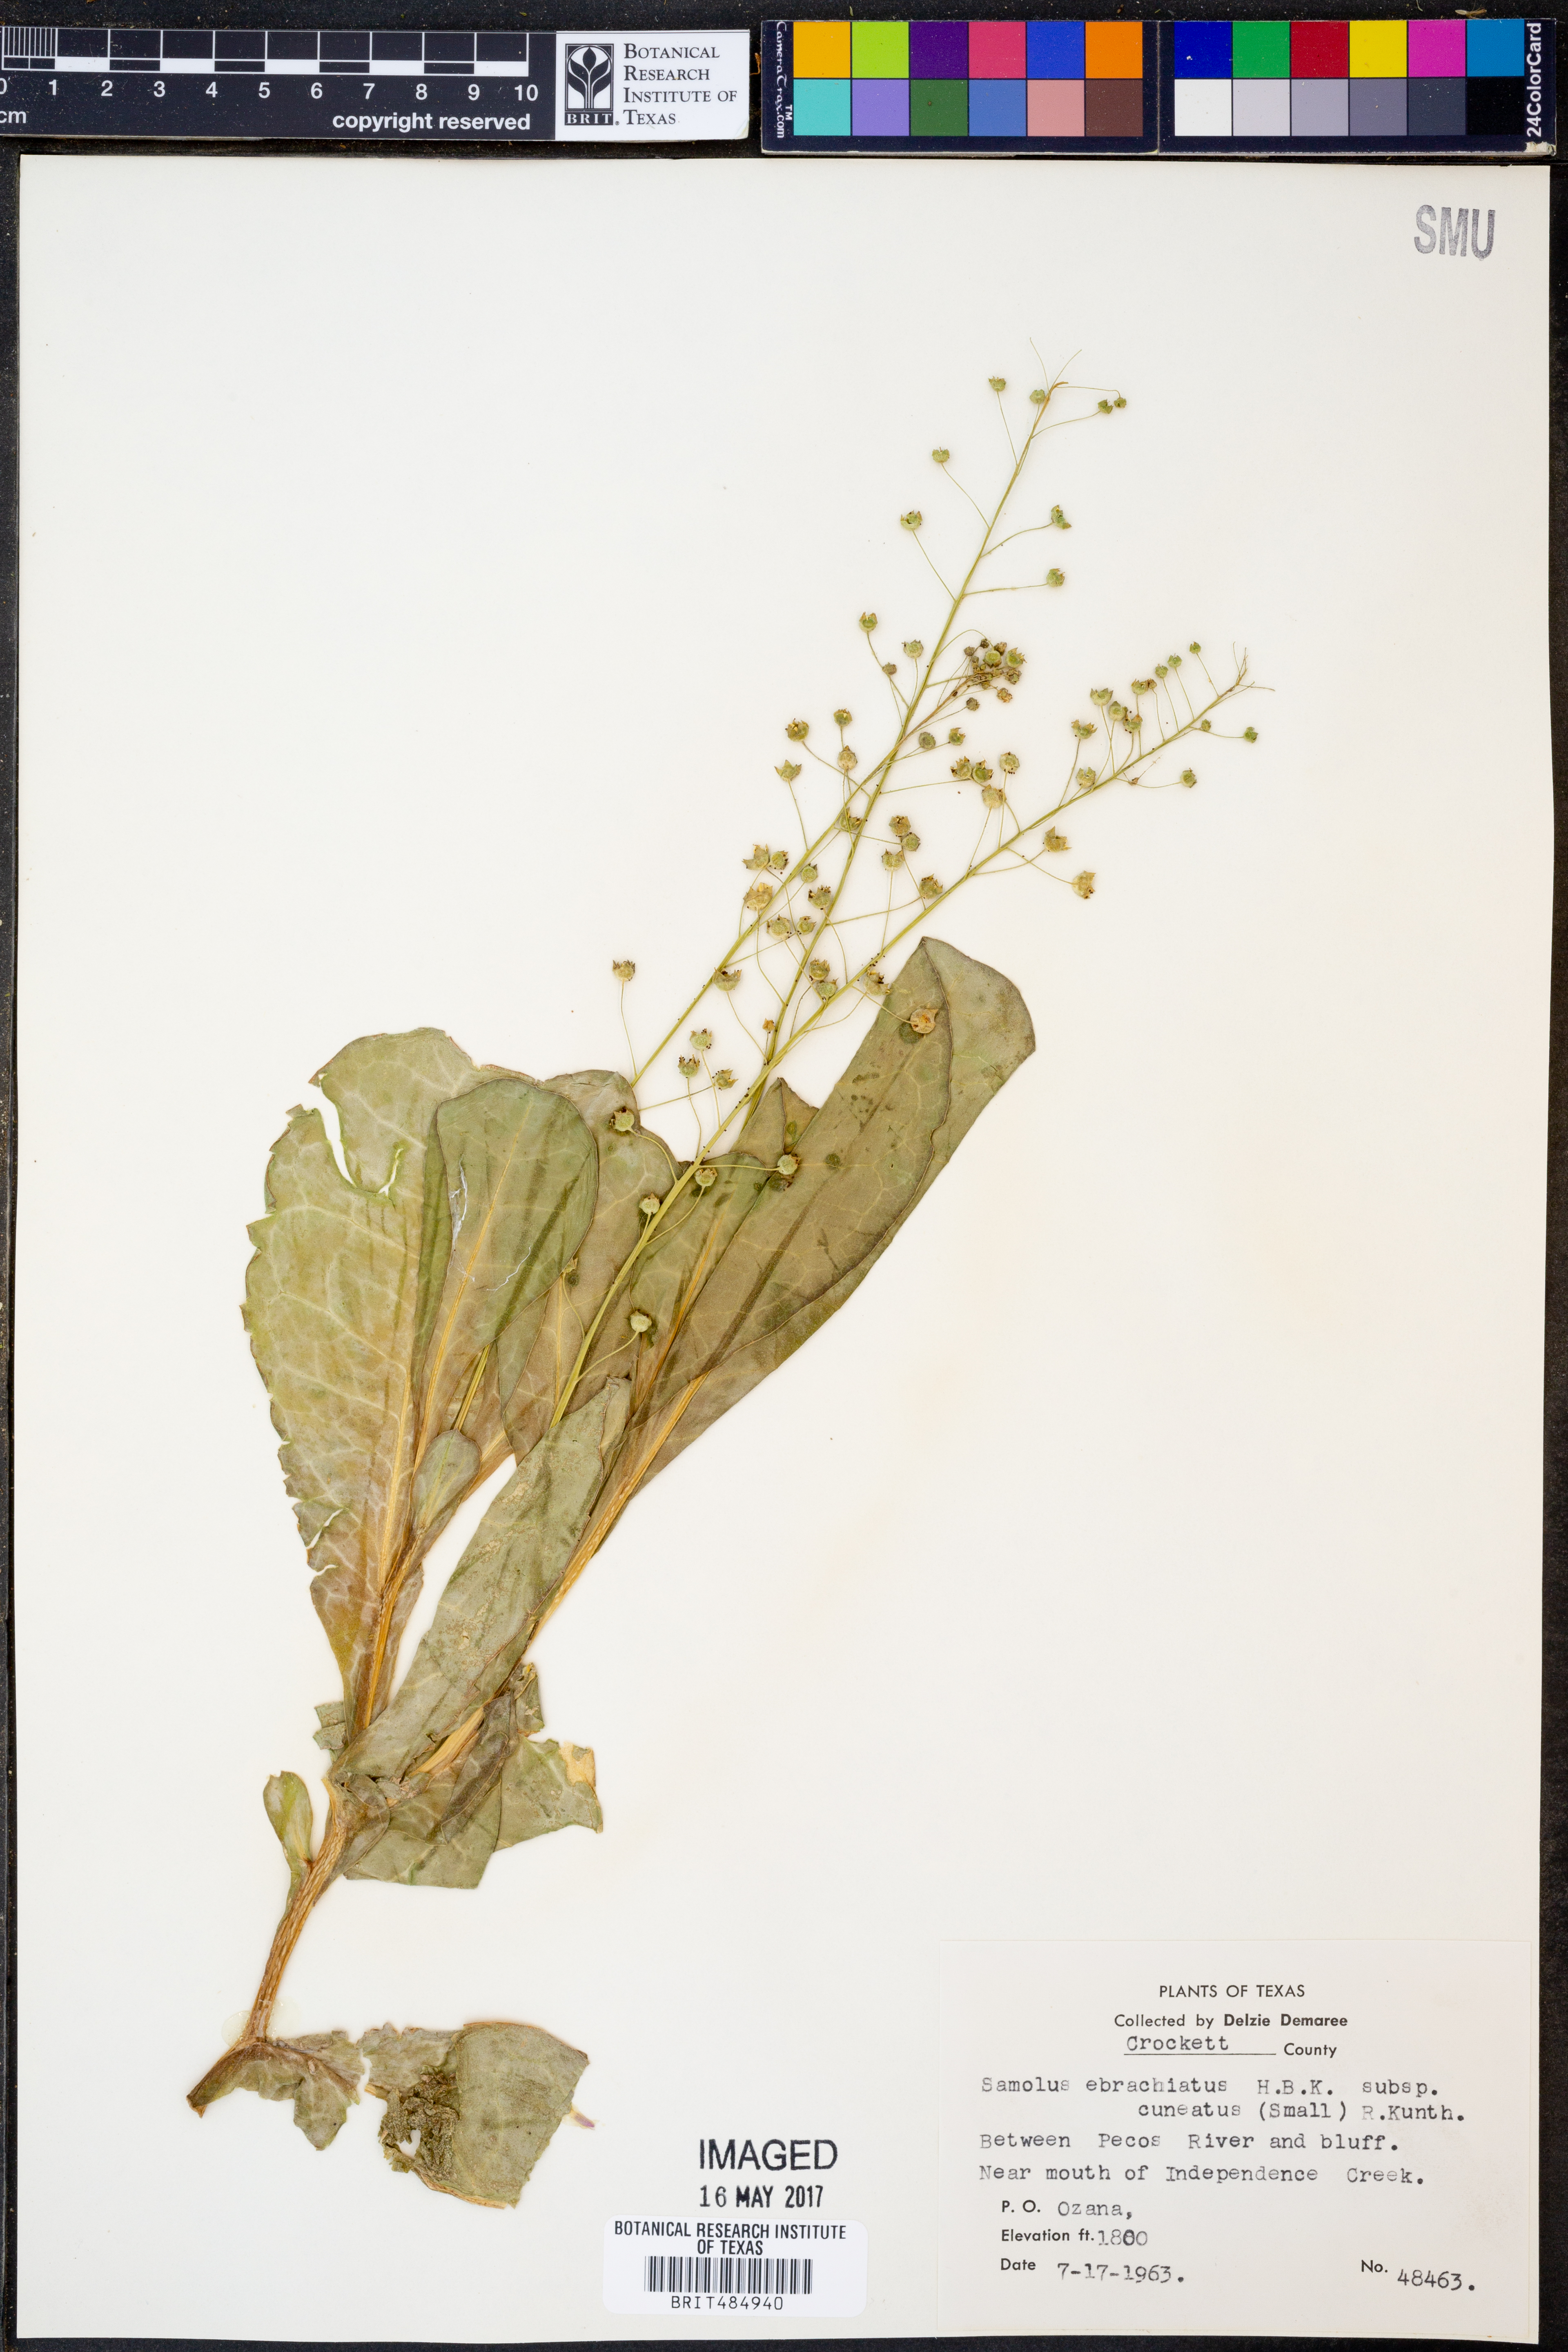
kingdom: Plantae
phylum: Tracheophyta
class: Magnoliopsida
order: Ericales
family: Primulaceae
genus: Samolus
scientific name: Samolus ebracteatus
